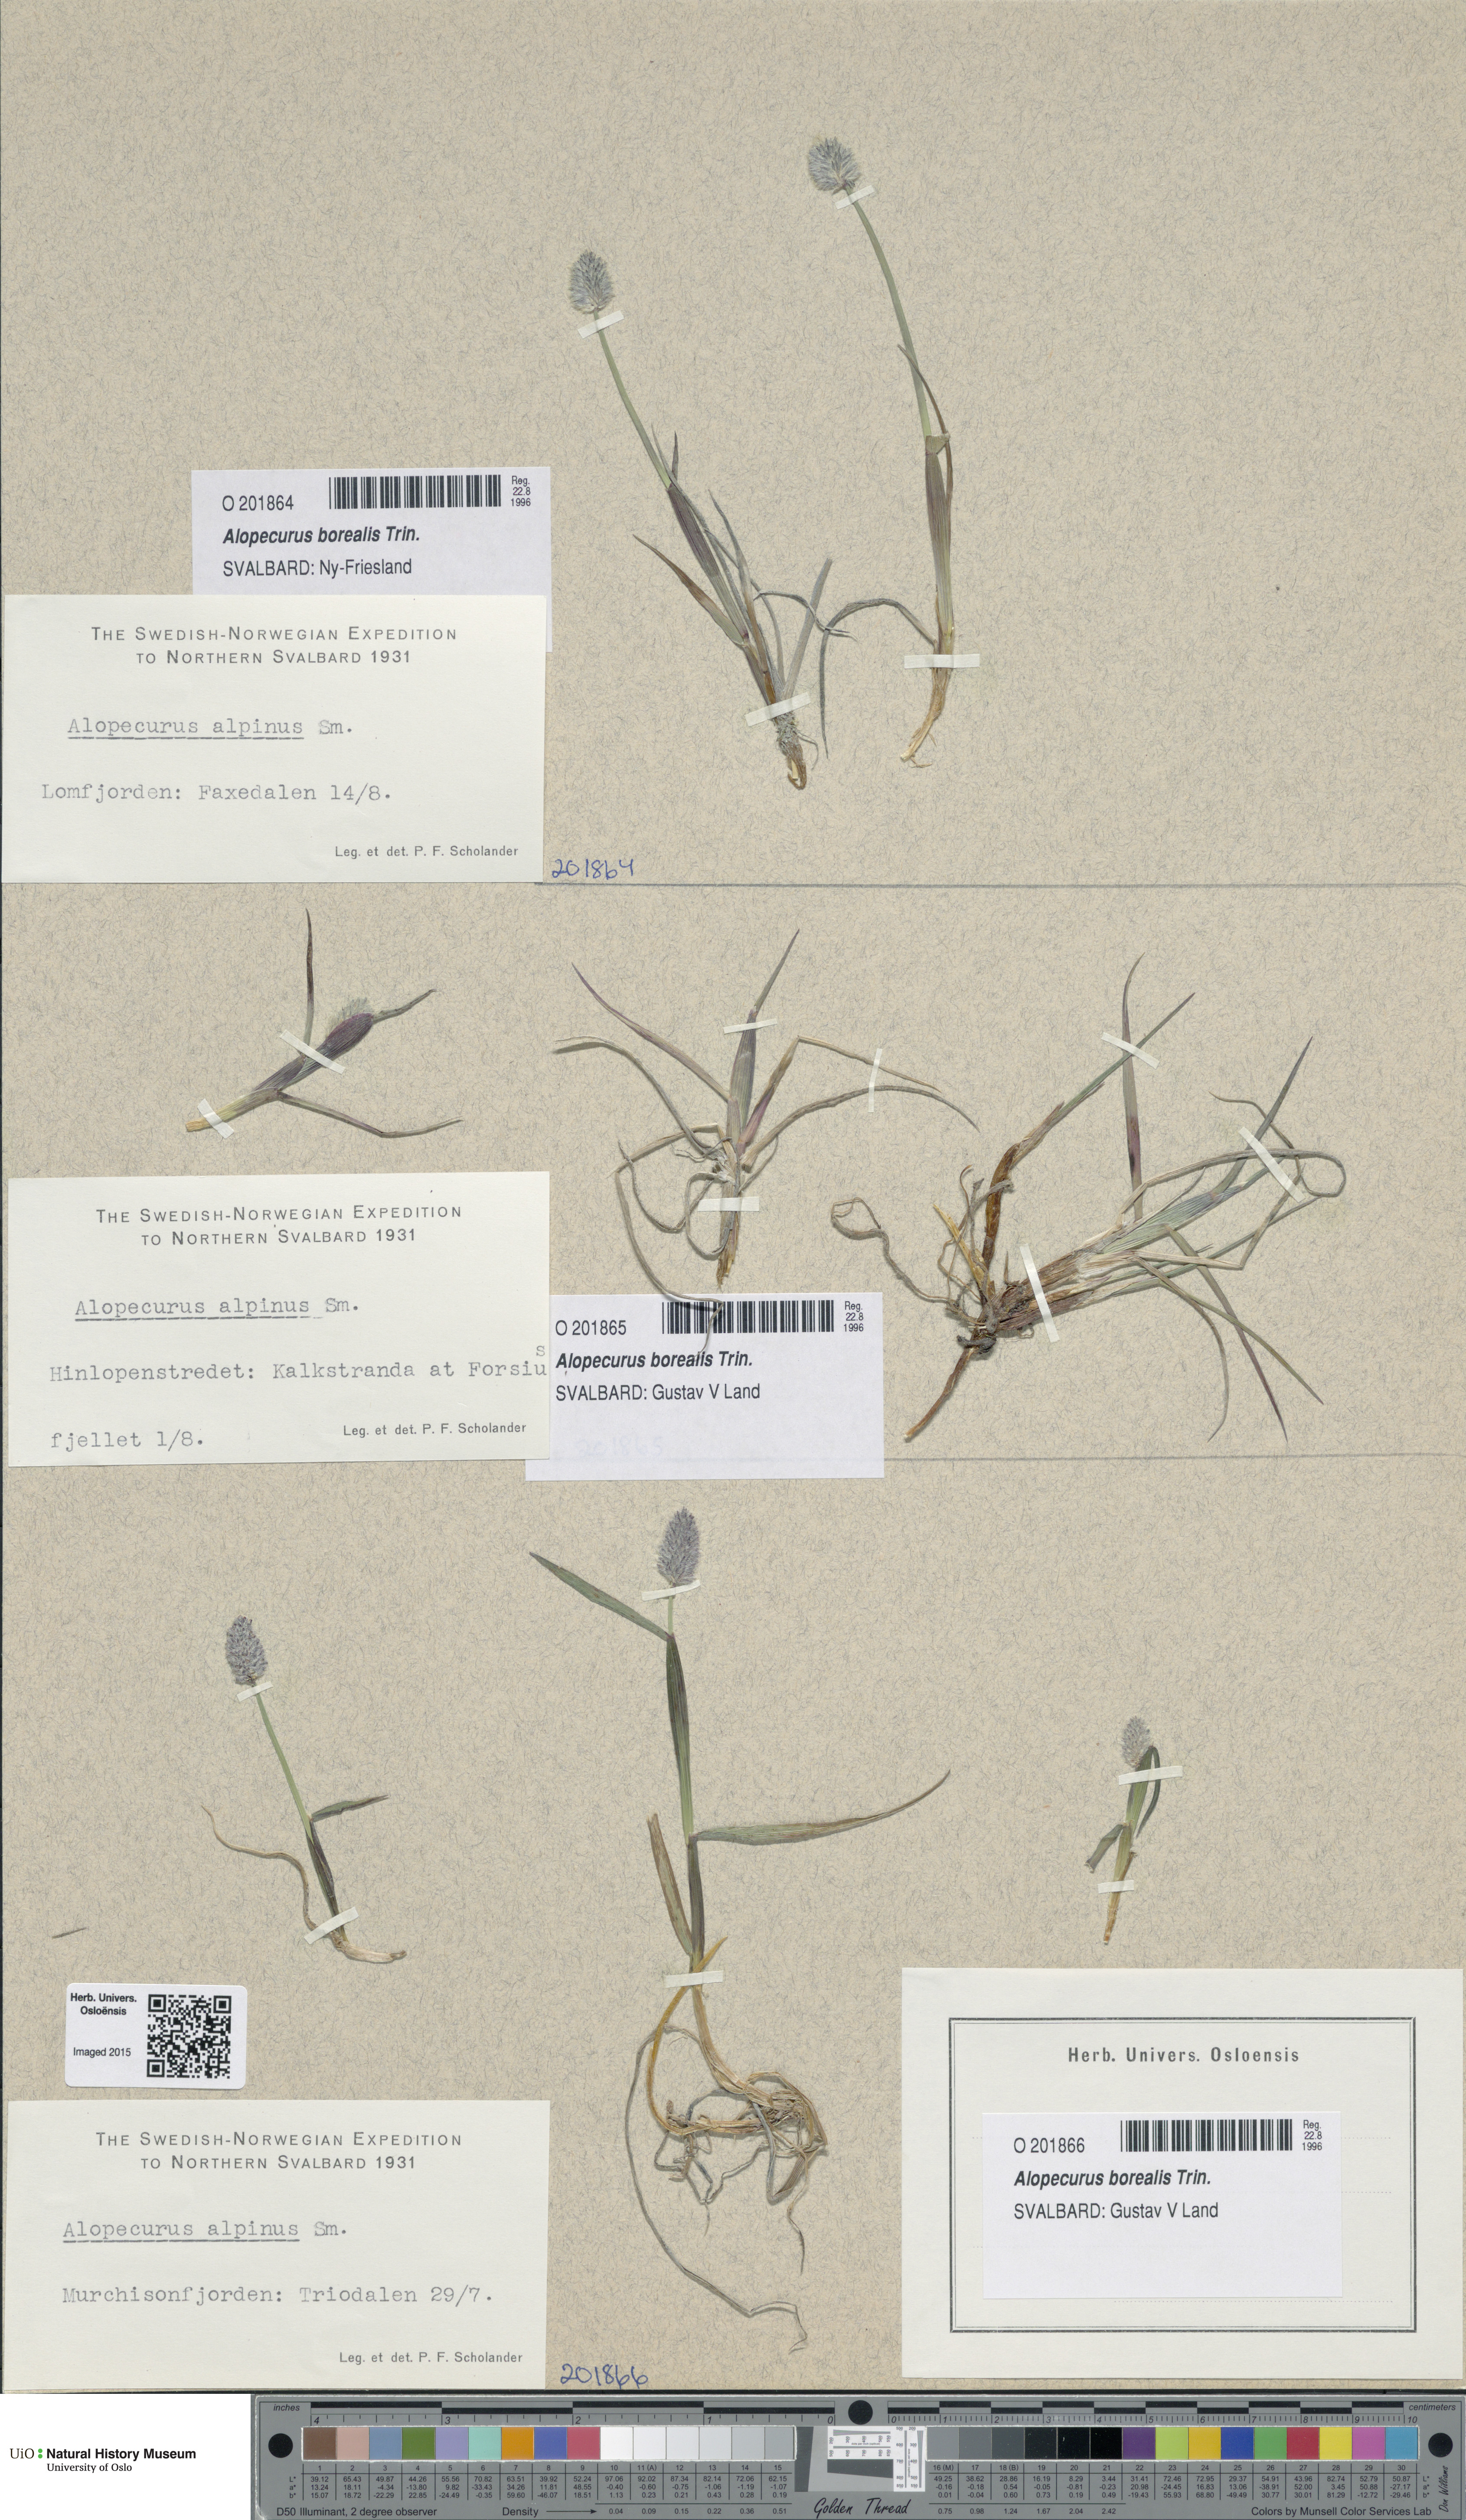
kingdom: Plantae
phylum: Tracheophyta
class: Liliopsida
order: Poales
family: Poaceae
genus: Alopecurus
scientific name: Alopecurus magellanicus
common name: Alpine foxtail
